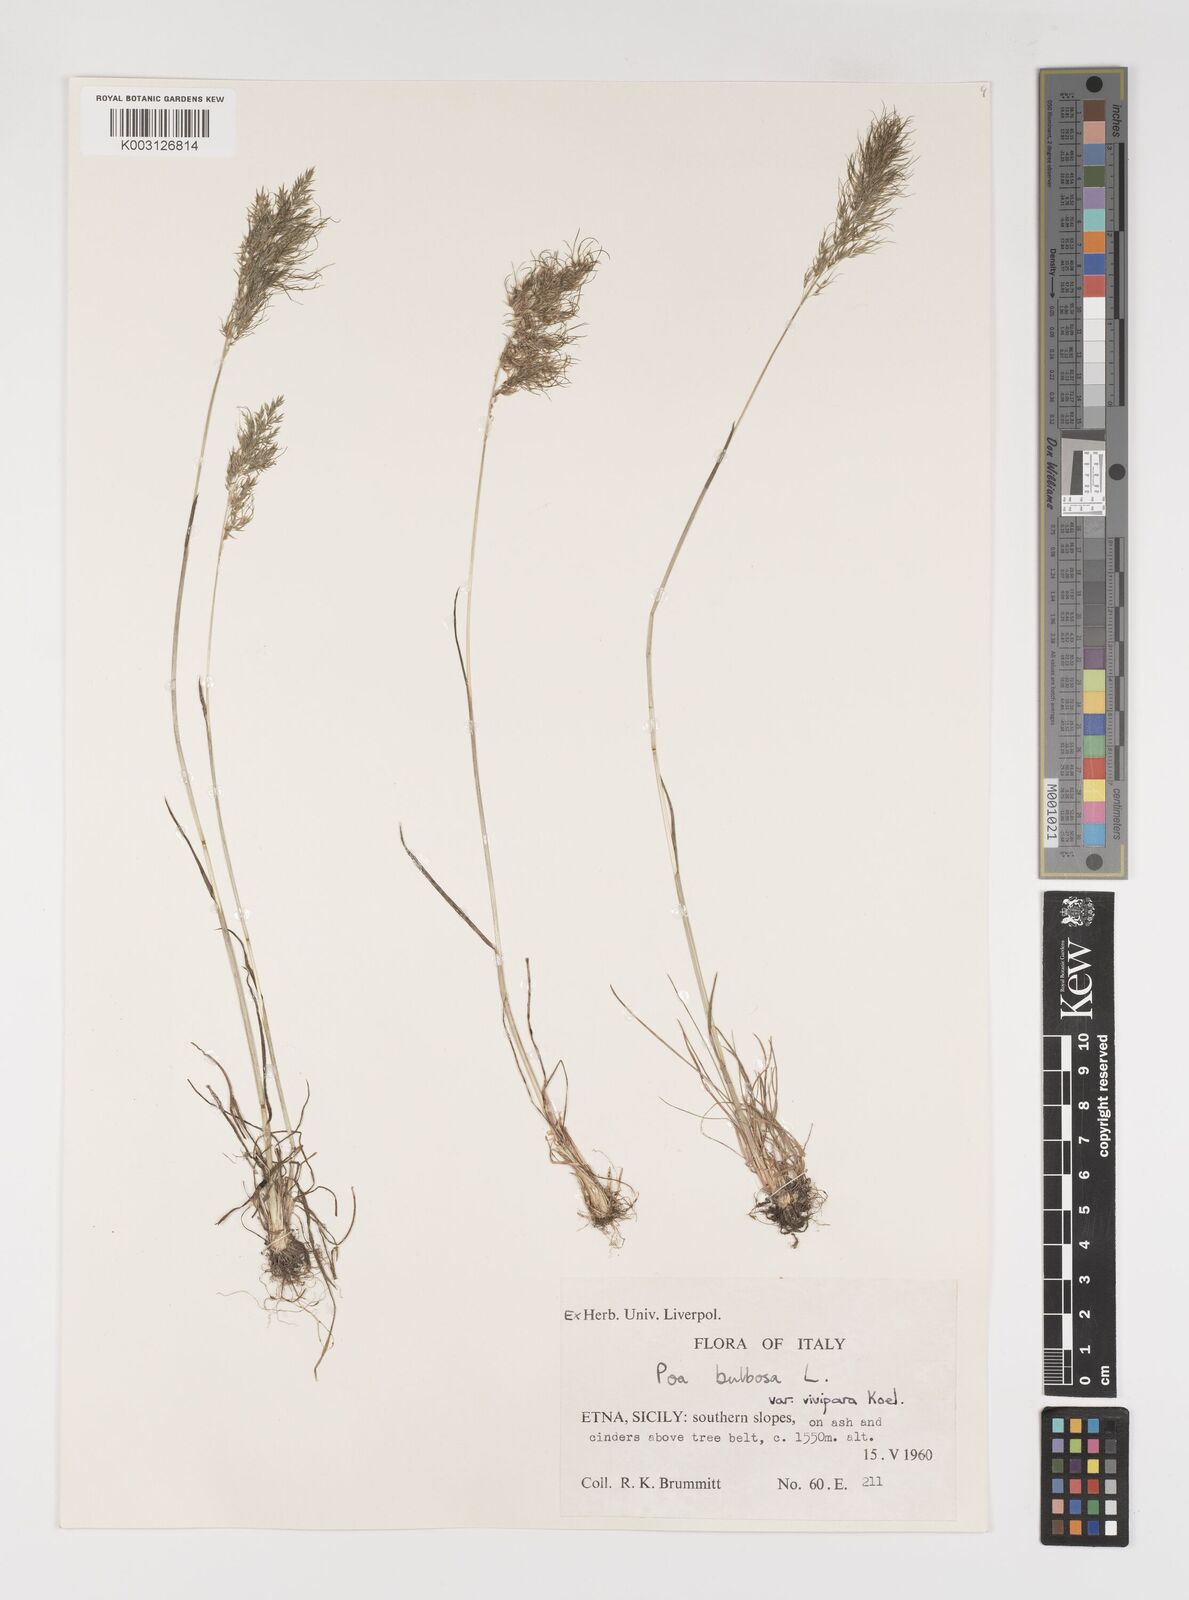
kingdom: Plantae
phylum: Tracheophyta
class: Liliopsida
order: Poales
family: Poaceae
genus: Poa
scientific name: Poa bulbosa
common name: Bulbous bluegrass
